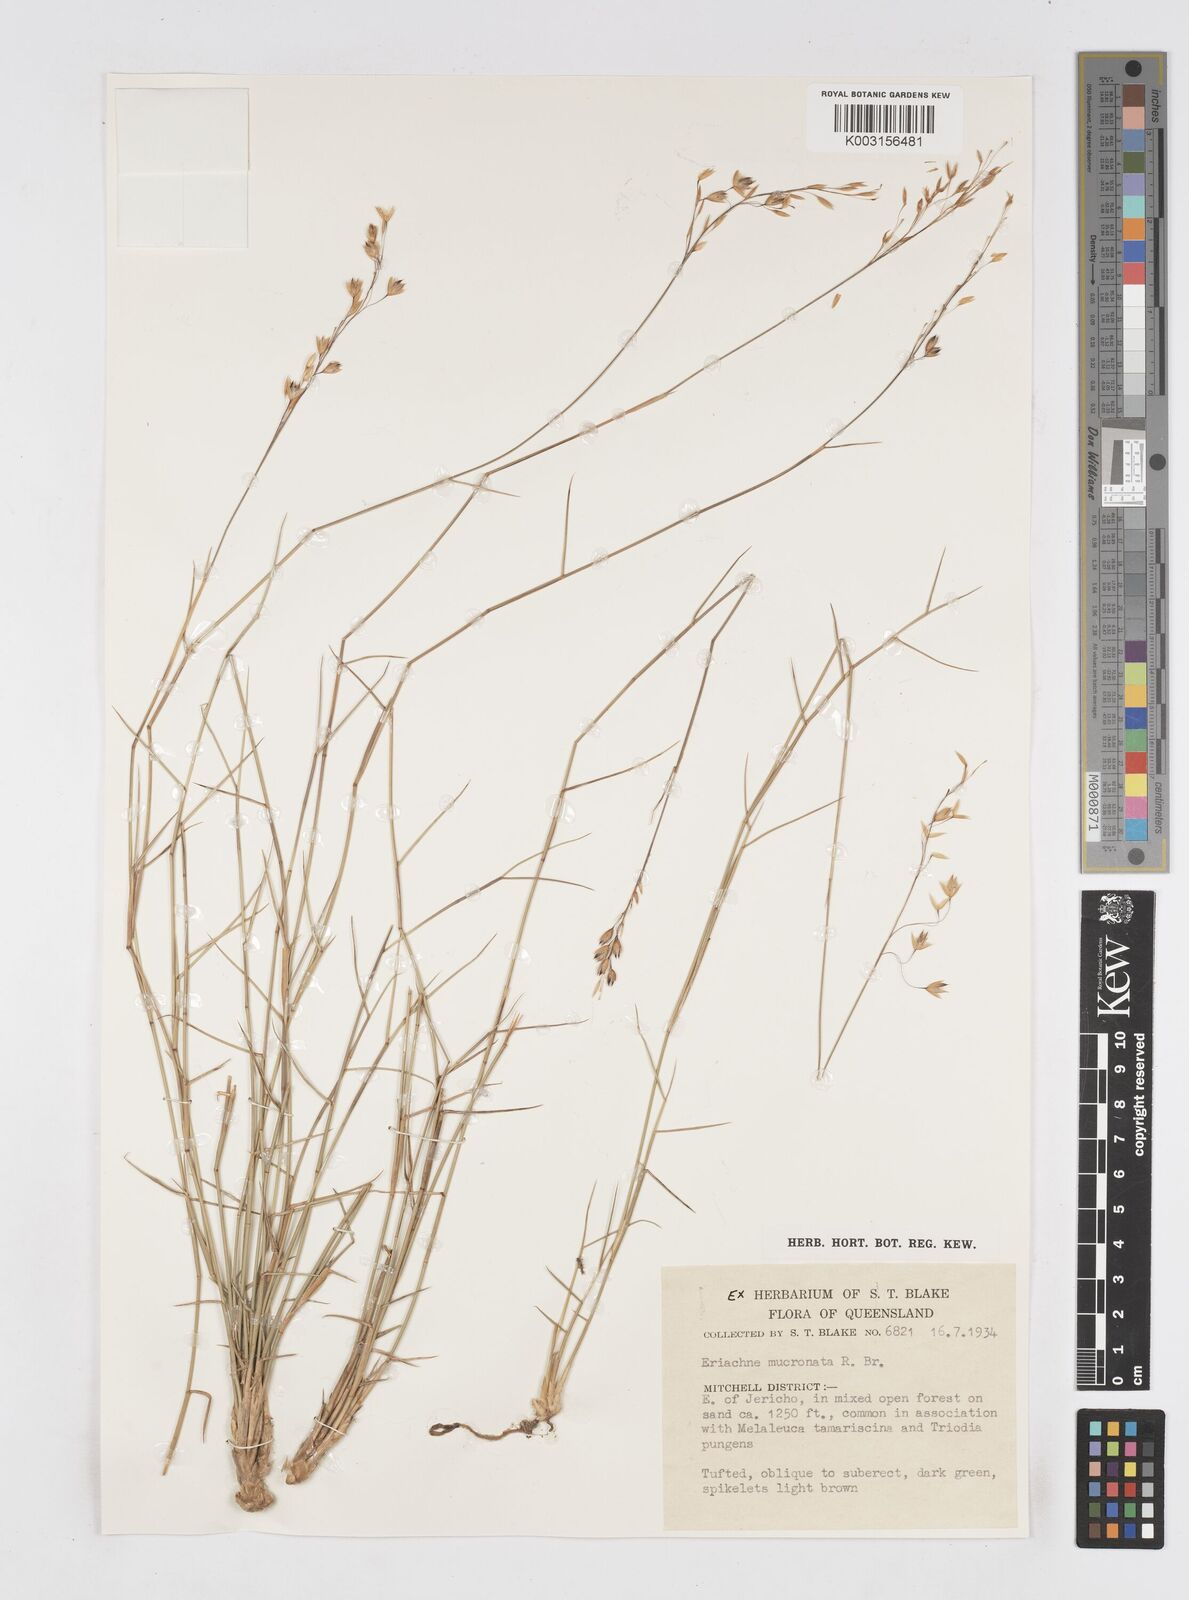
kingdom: Plantae
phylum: Tracheophyta
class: Liliopsida
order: Poales
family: Poaceae
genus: Eriachne
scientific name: Eriachne mucronata
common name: Mountain wanderrie grass
